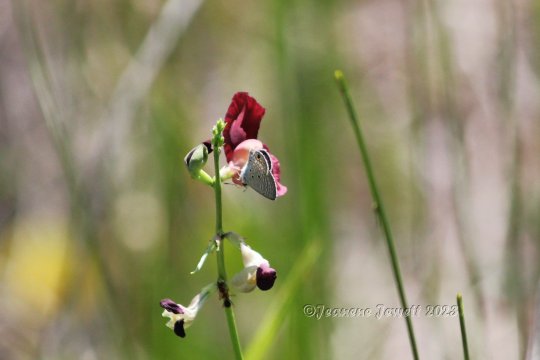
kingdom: Animalia
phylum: Arthropoda
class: Insecta
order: Lepidoptera
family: Lycaenidae
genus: Hemiargus
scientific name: Hemiargus ceraunus
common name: Ceraunus Blue
